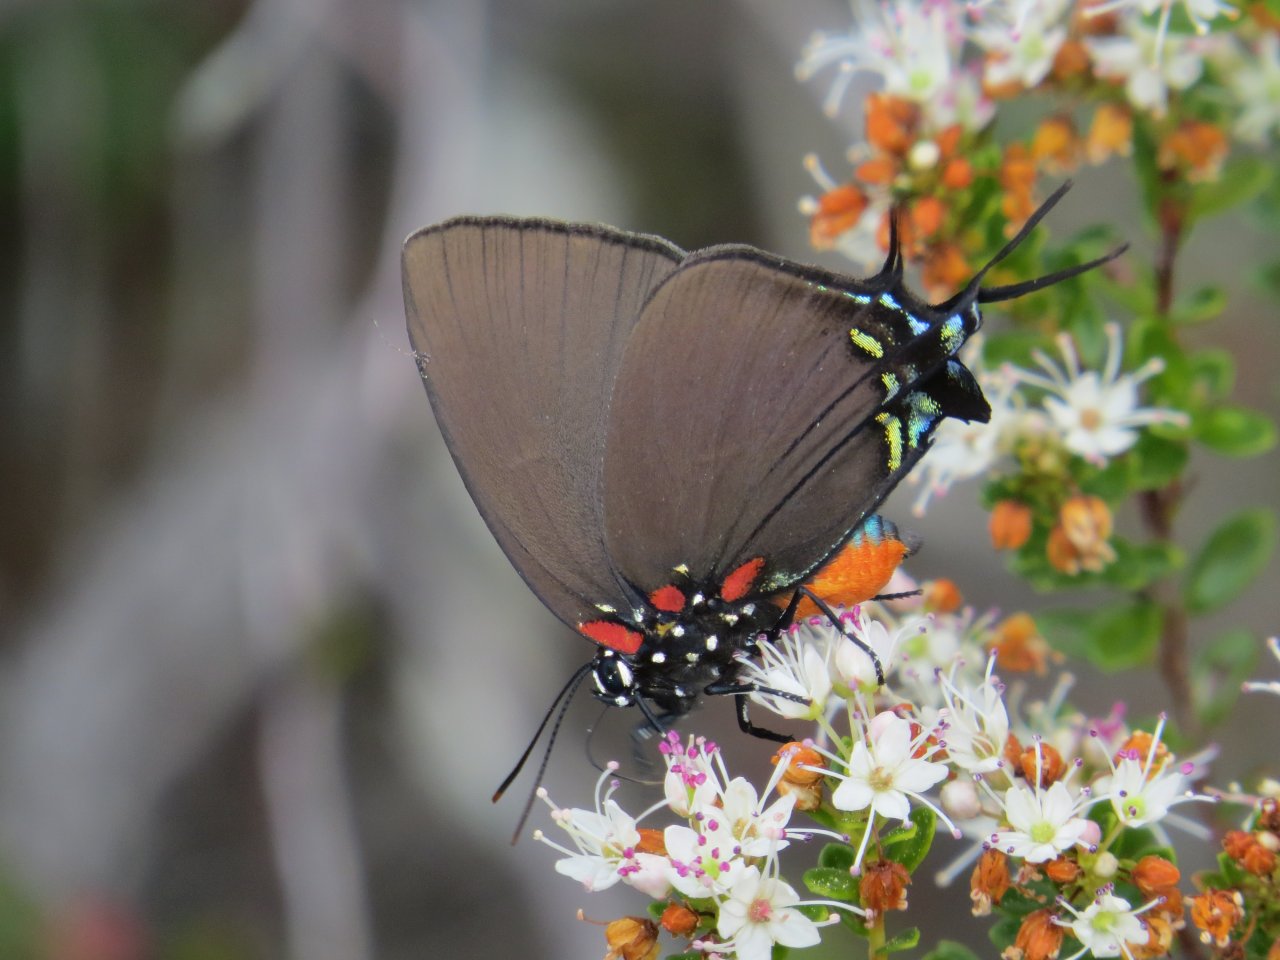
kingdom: Animalia
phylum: Arthropoda
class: Insecta
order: Lepidoptera
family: Lycaenidae
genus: Atlides
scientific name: Atlides halesus
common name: Great Purple Hairstreak
